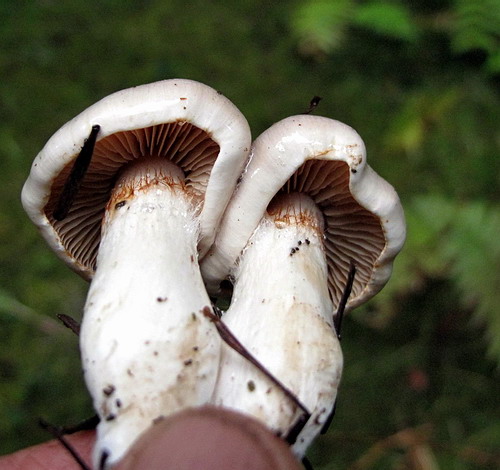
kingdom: Fungi
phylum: Basidiomycota
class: Agaricomycetes
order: Agaricales
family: Cortinariaceae
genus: Thaxterogaster
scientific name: Thaxterogaster barbatus
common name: elfenbens-slørhat
